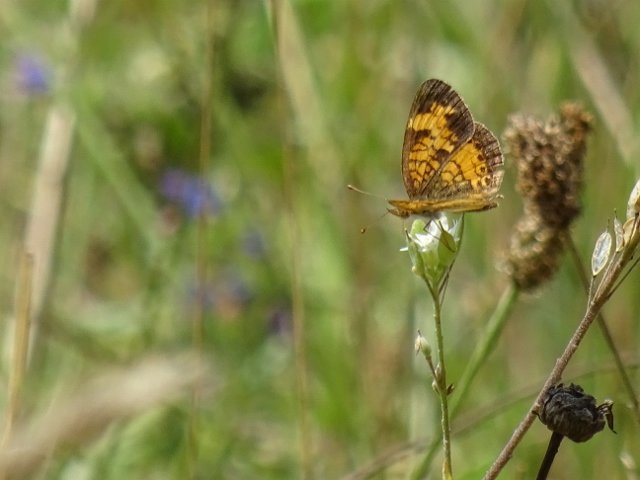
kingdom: Animalia
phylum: Arthropoda
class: Insecta
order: Lepidoptera
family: Nymphalidae
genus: Phyciodes
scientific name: Phyciodes tharos
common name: Northern Crescent
